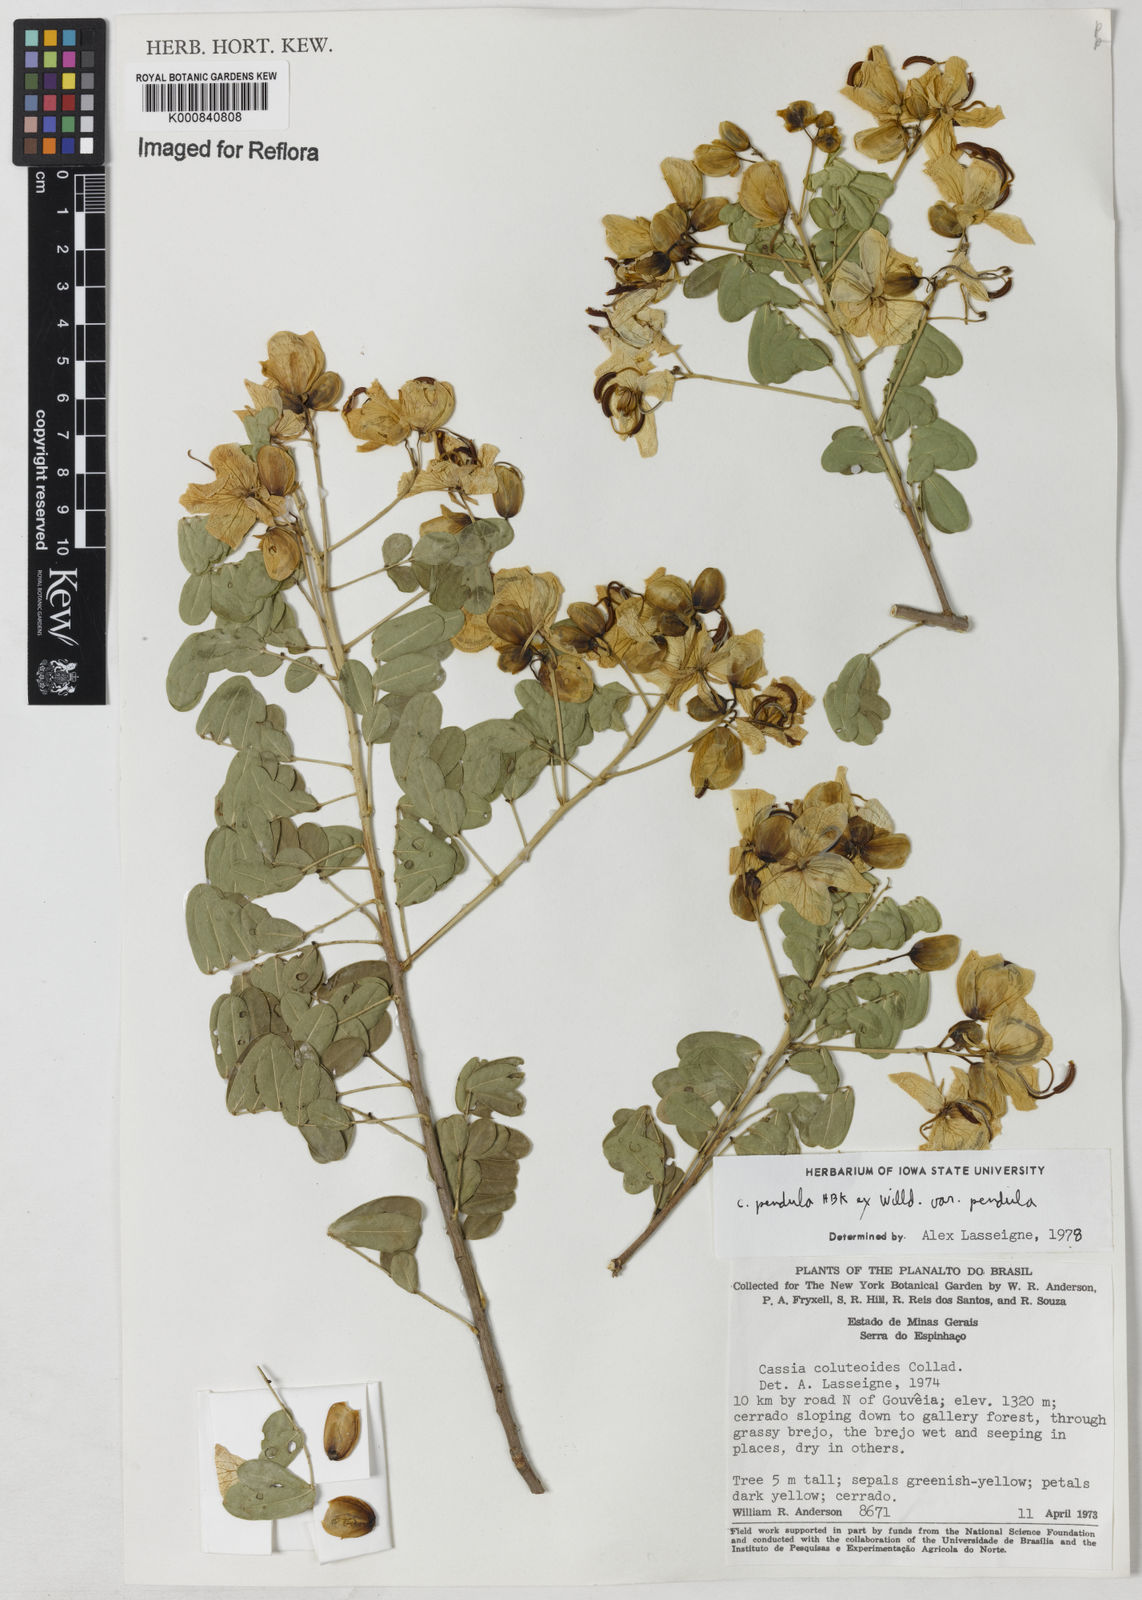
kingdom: Plantae
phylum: Tracheophyta
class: Magnoliopsida
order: Fabales
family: Fabaceae
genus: Senna
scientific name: Senna pendula
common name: Easter cassia
